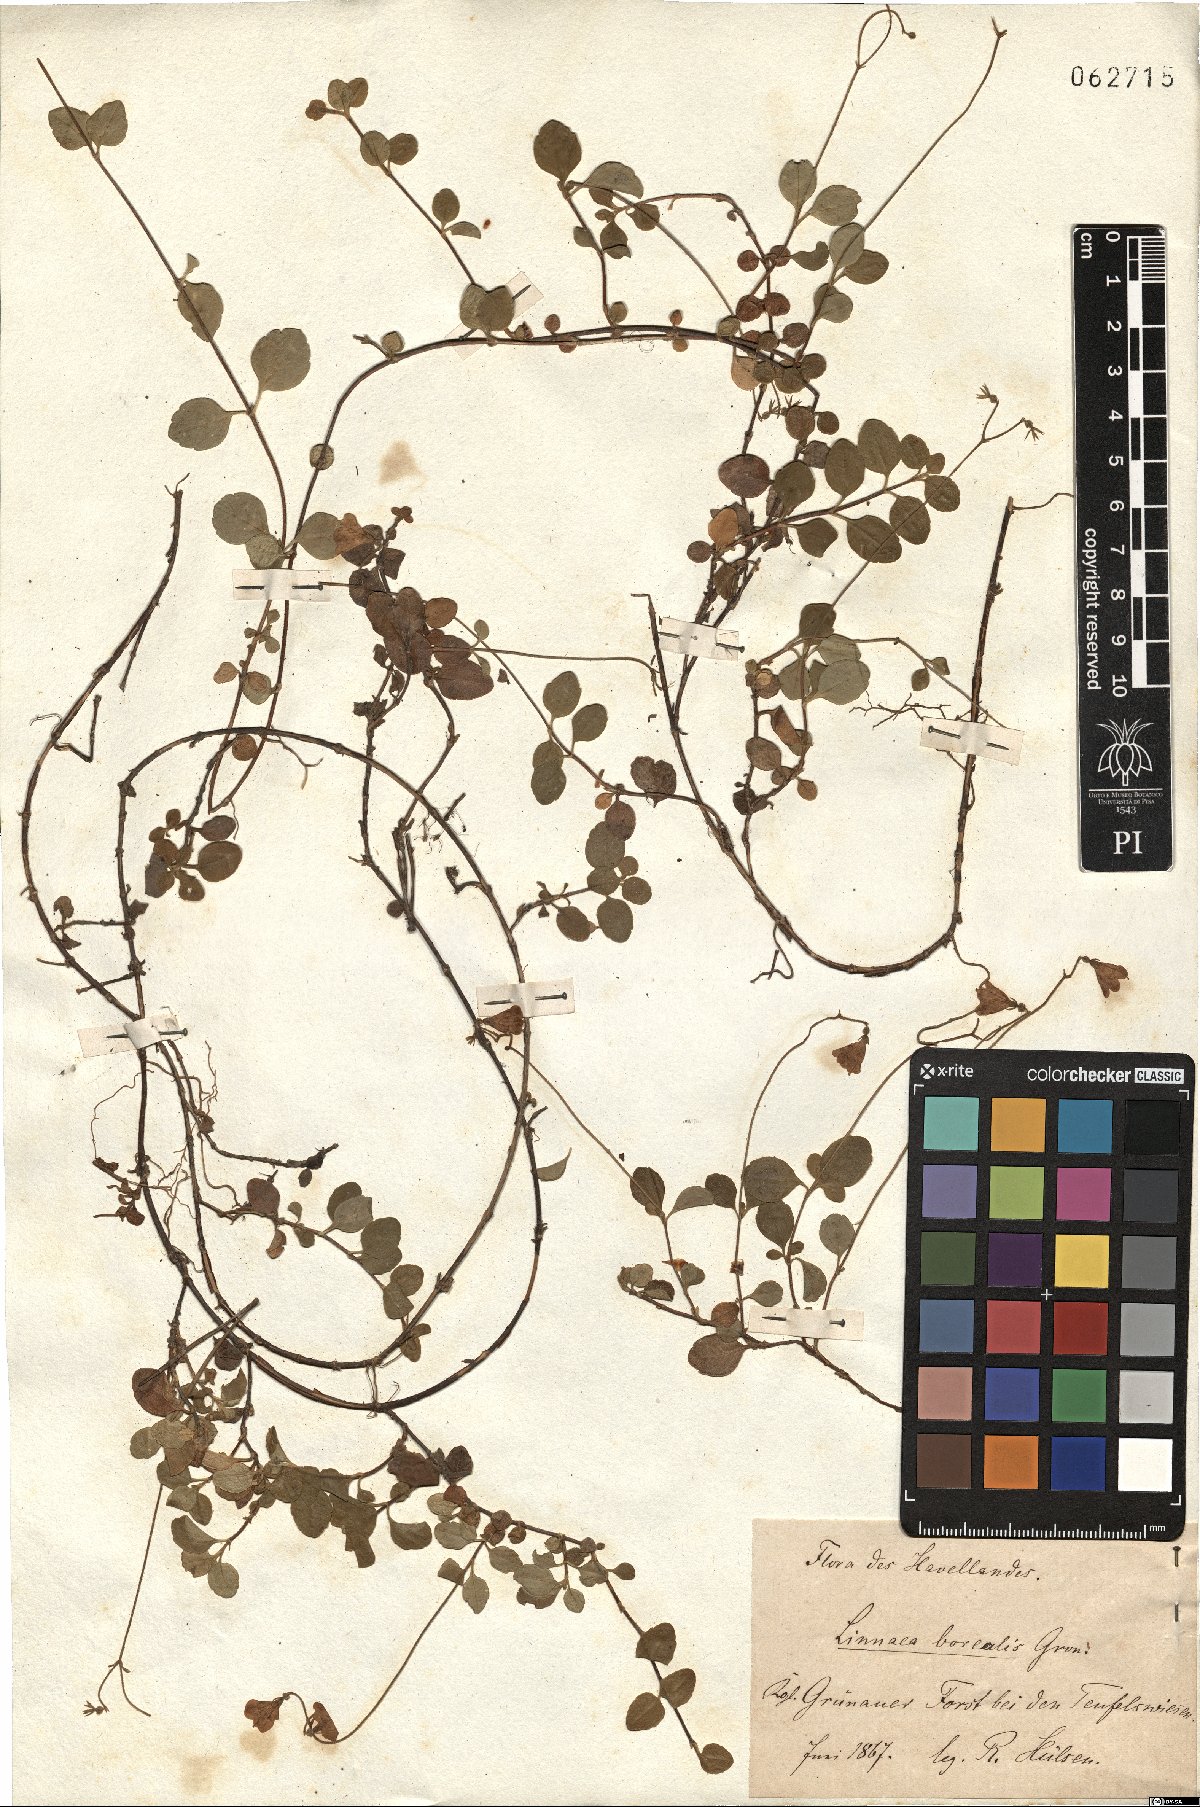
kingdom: Plantae
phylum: Tracheophyta
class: Magnoliopsida
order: Dipsacales
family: Caprifoliaceae
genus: Linnaea
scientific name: Linnaea borealis
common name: Twinflower
